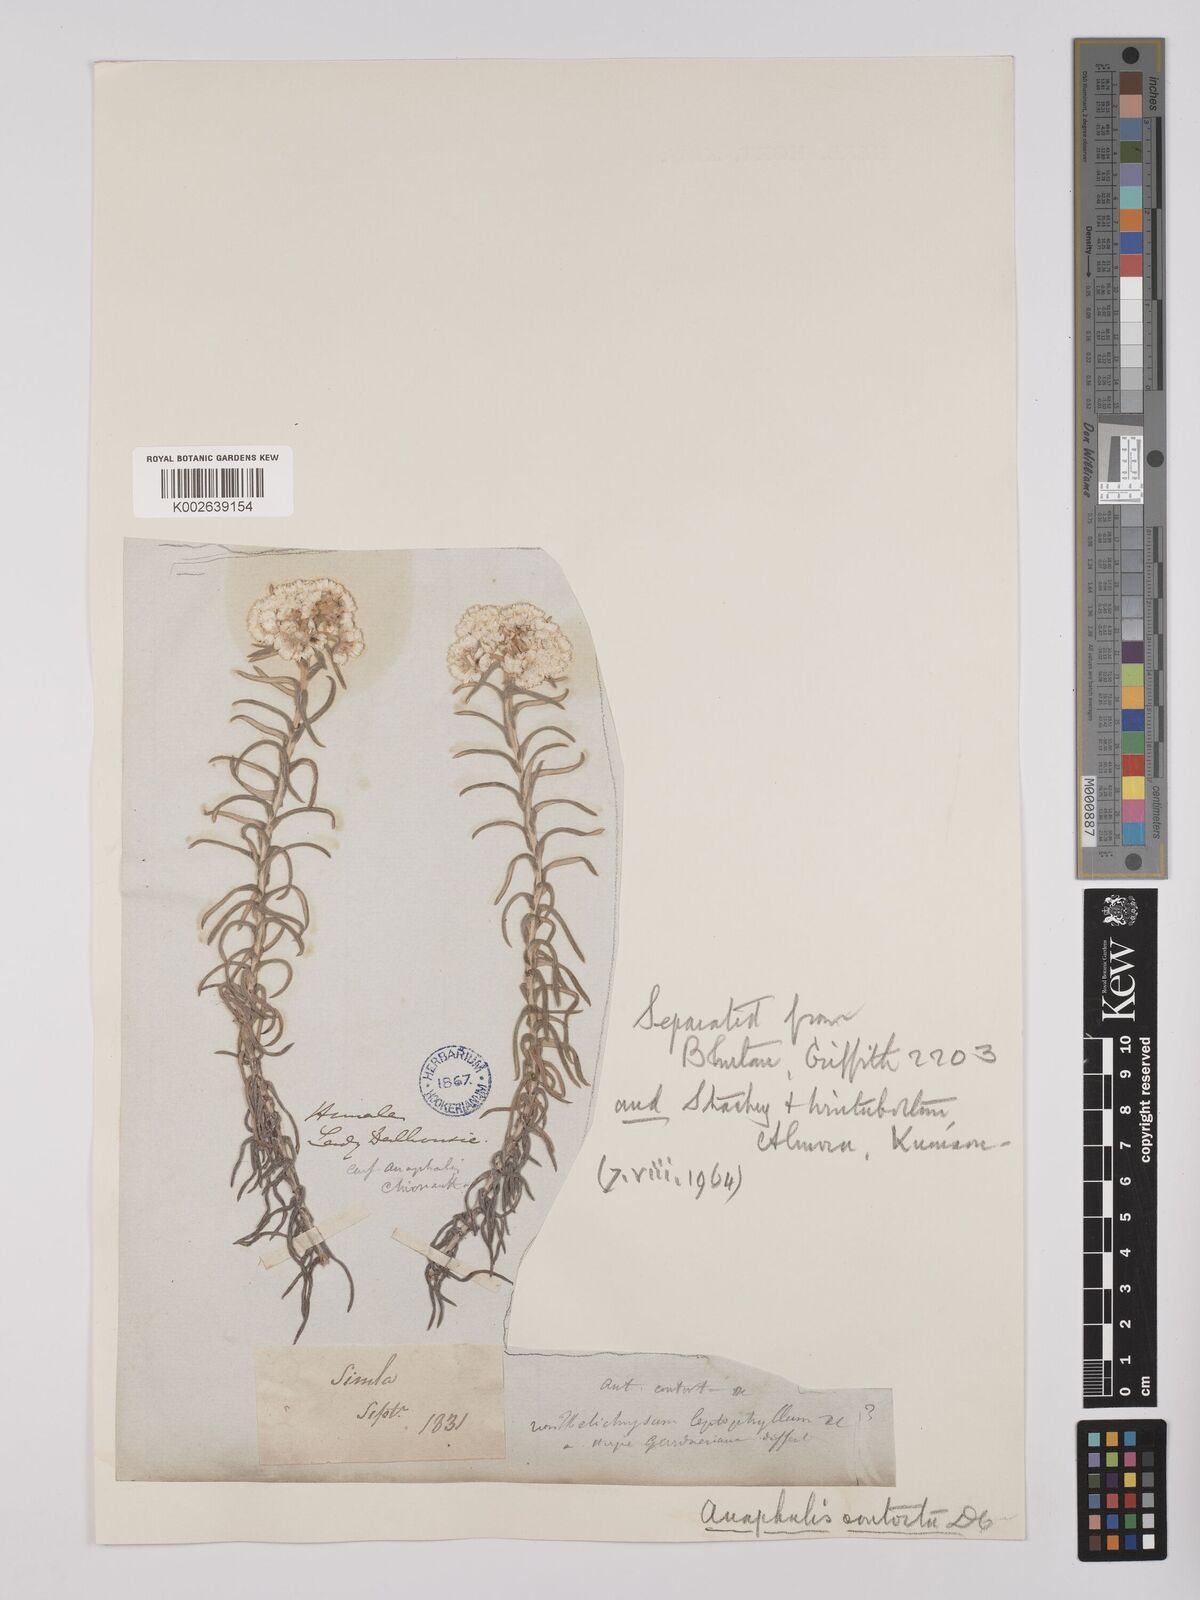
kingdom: Plantae
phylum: Tracheophyta
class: Magnoliopsida
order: Asterales
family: Asteraceae
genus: Anaphalis
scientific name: Anaphalis contorta
